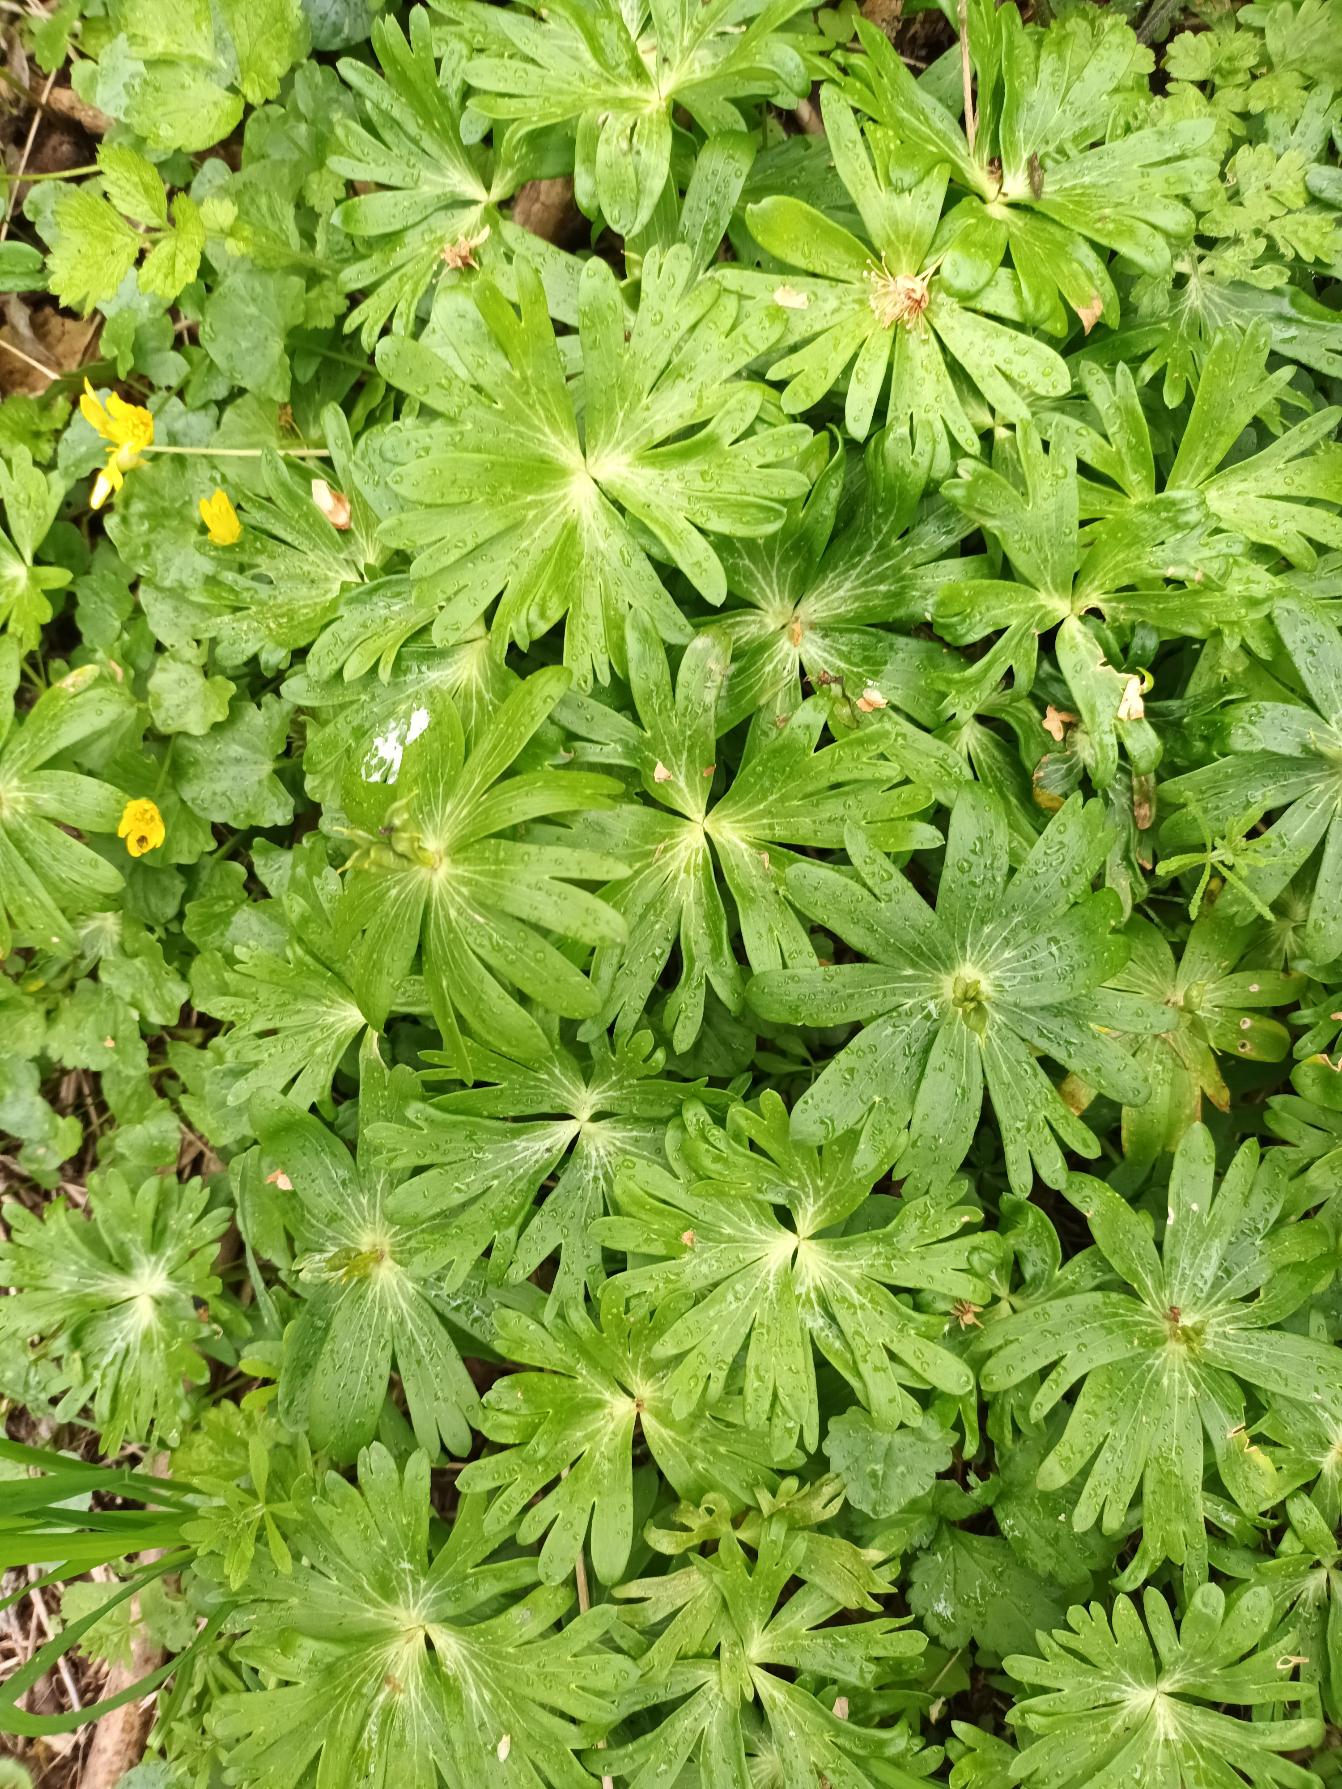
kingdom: Plantae
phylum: Tracheophyta
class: Magnoliopsida
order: Ranunculales
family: Ranunculaceae
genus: Eranthis
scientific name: Eranthis hyemalis
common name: Erantis
